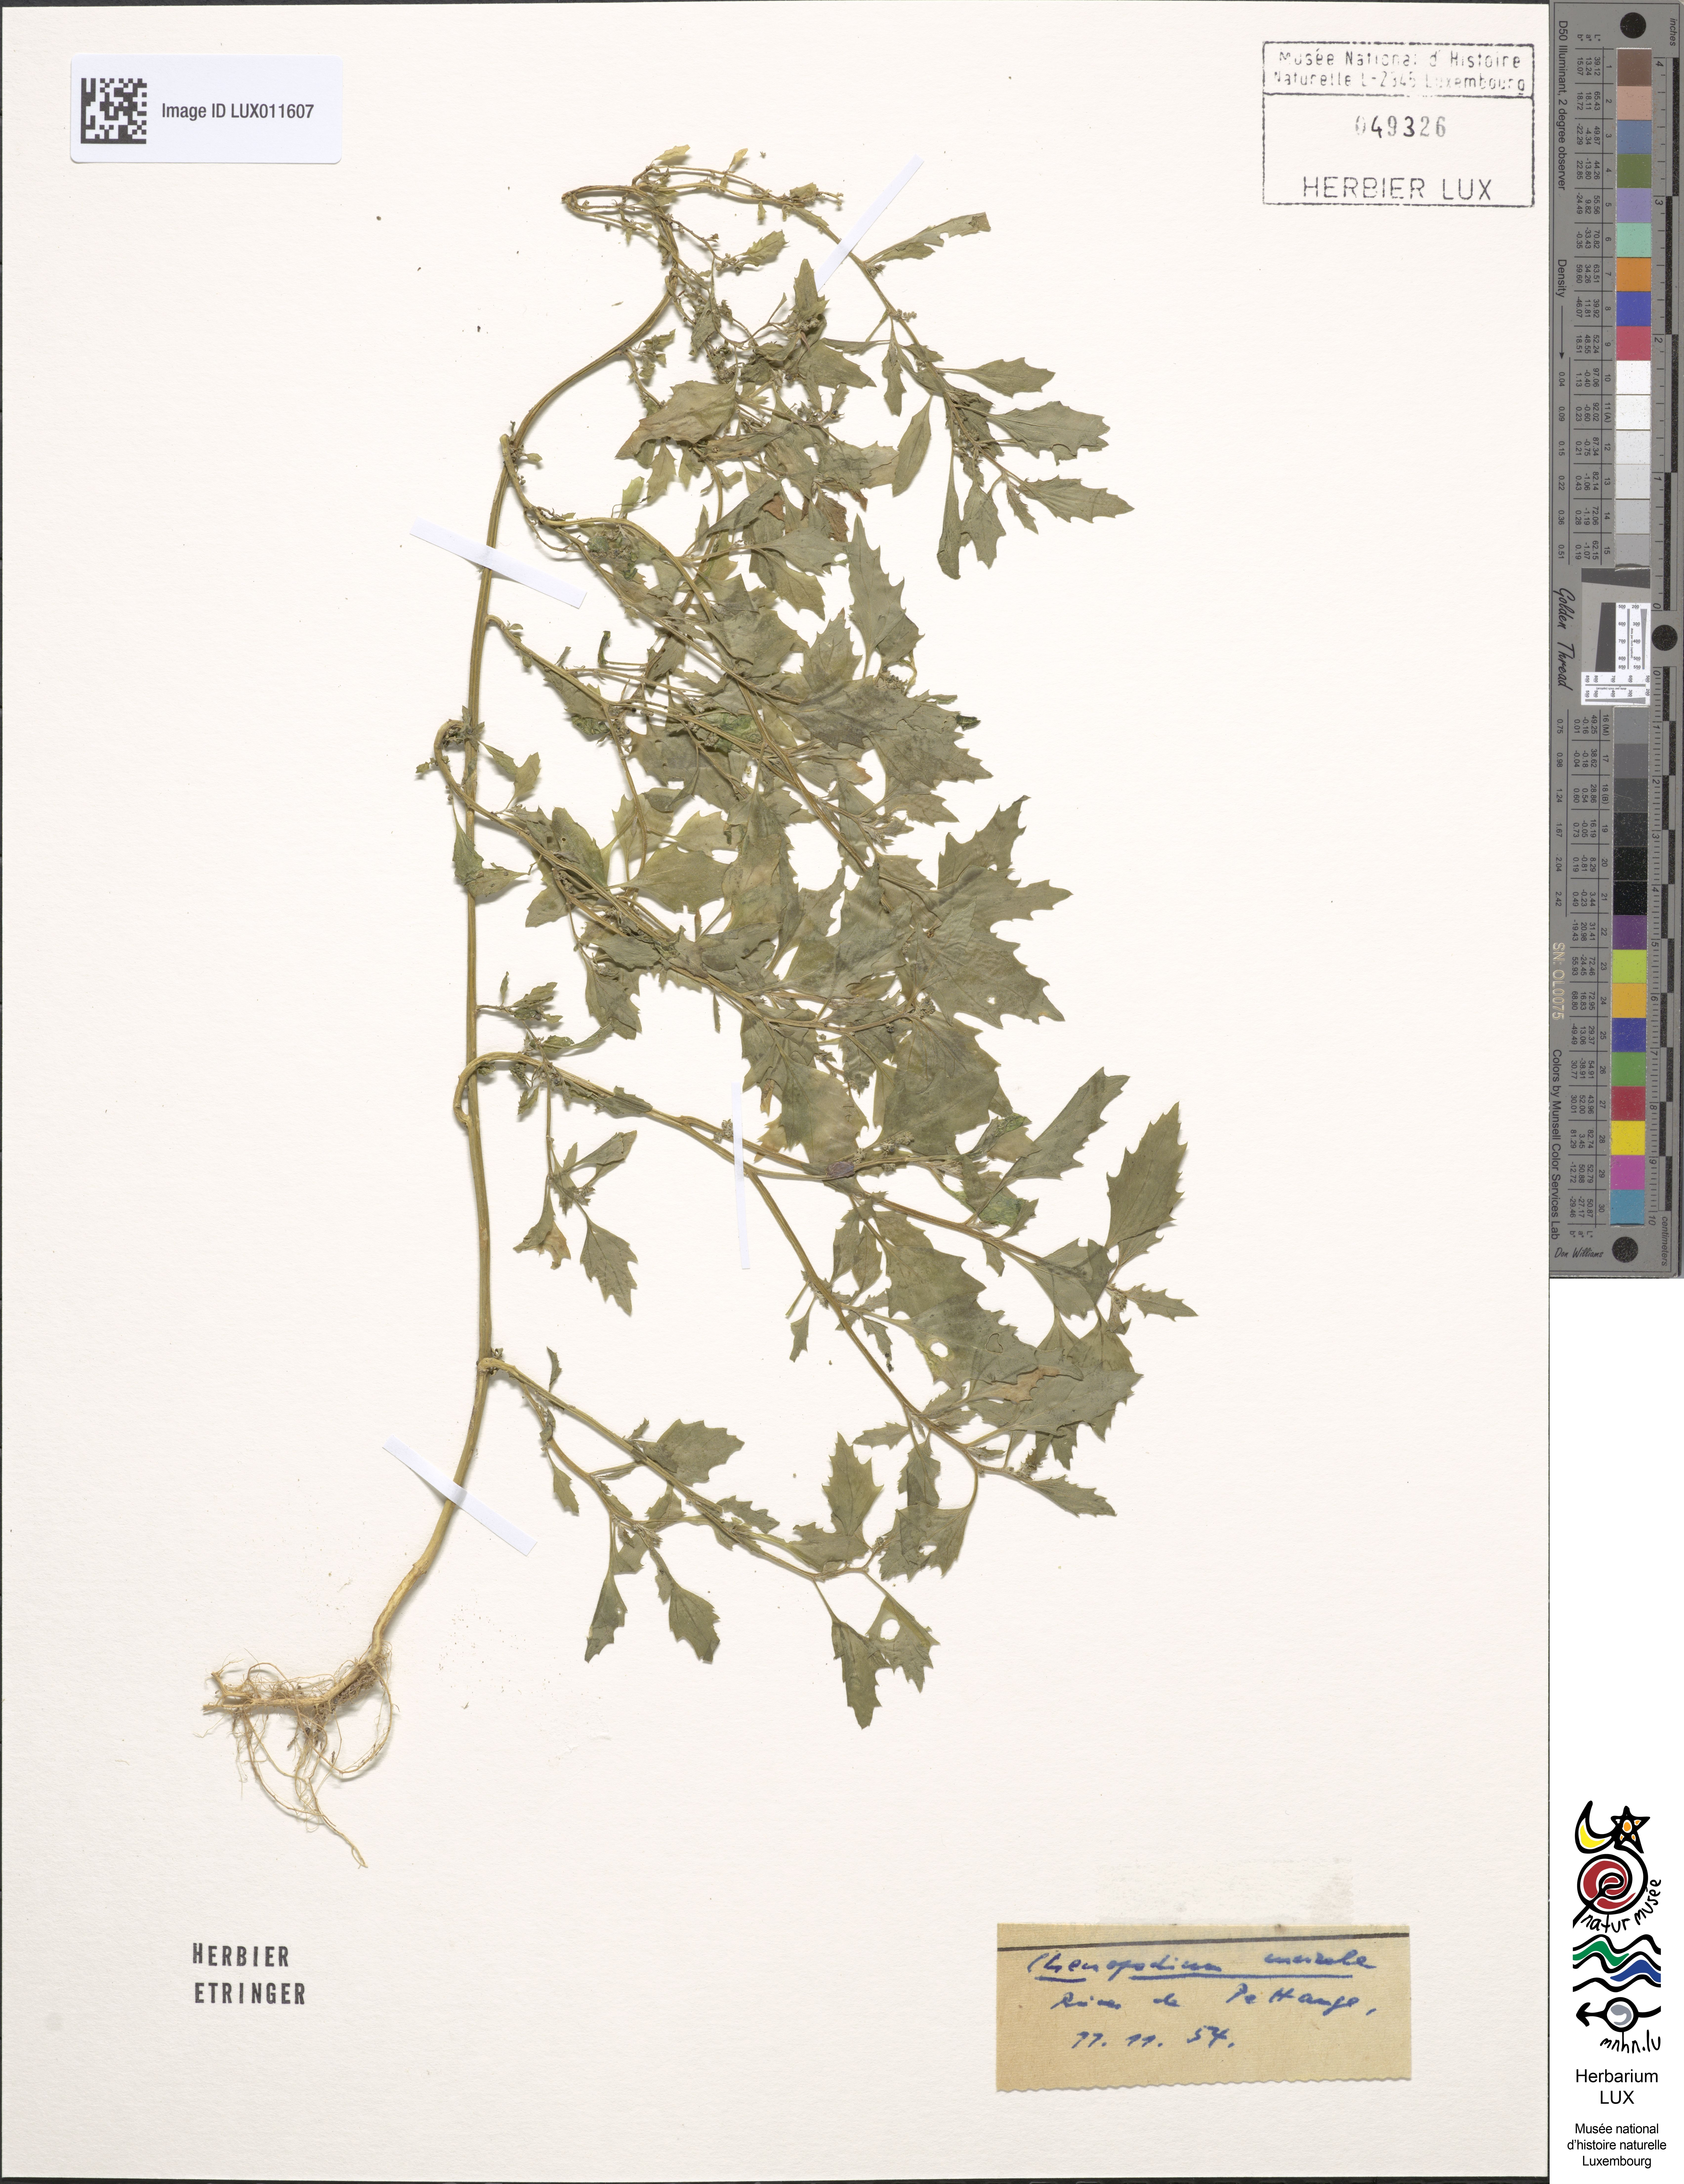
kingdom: Plantae
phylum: Tracheophyta
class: Magnoliopsida
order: Caryophyllales
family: Amaranthaceae
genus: Chenopodiastrum
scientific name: Chenopodiastrum murale
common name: Sowbane
